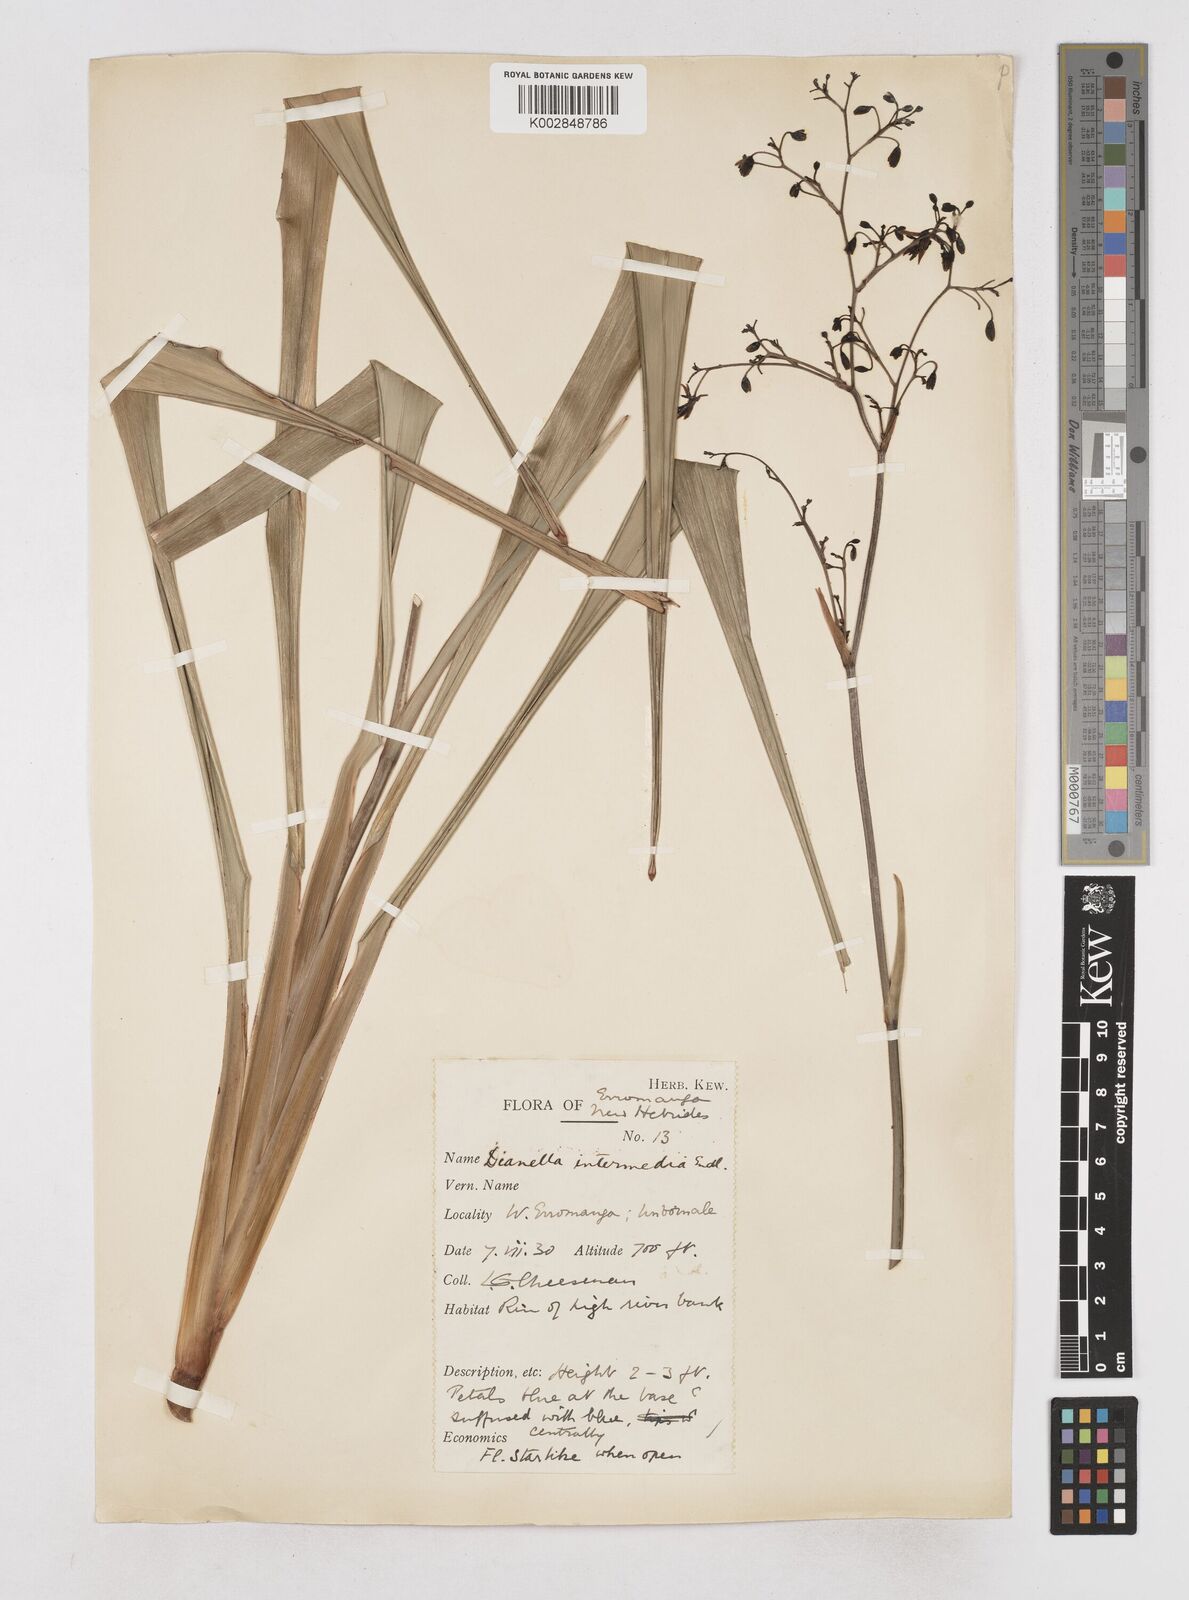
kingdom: Plantae
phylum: Tracheophyta
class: Liliopsida
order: Asparagales
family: Asphodelaceae
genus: Dianella
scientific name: Dianella ensifolia
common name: New zealand lilyplant
